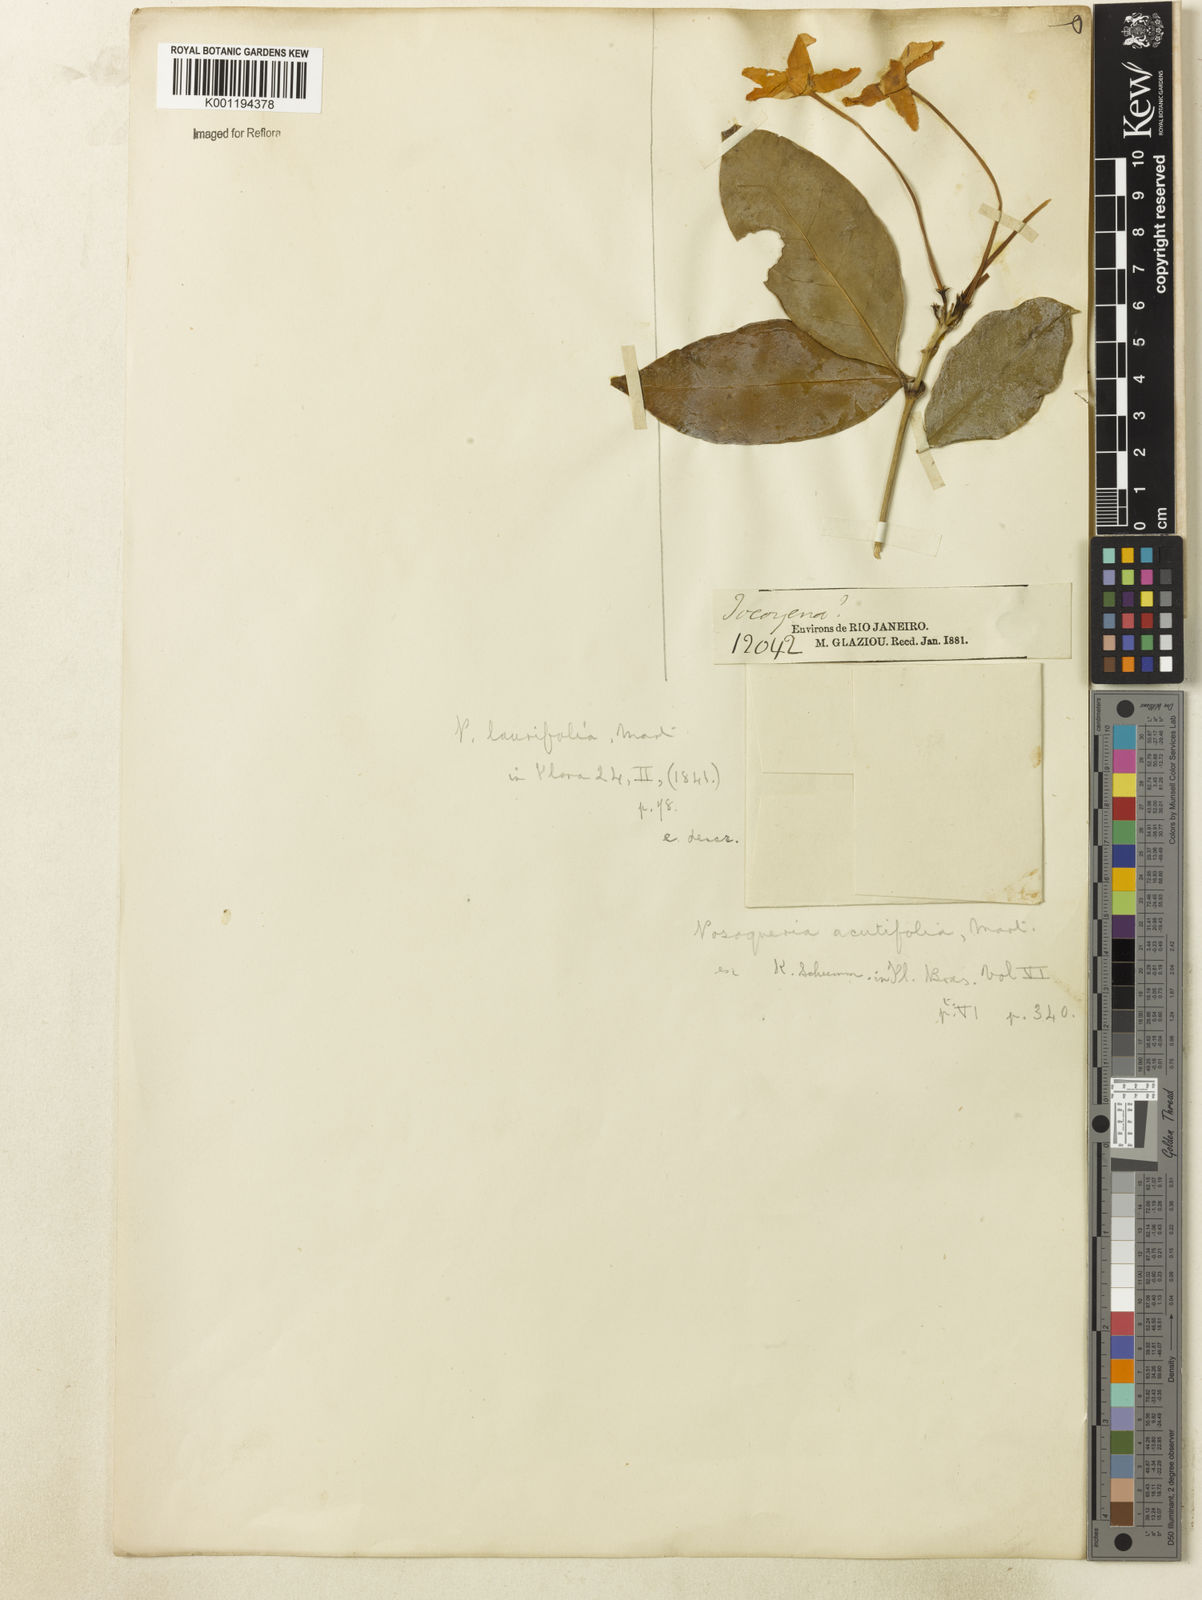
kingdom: Plantae
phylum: Tracheophyta
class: Magnoliopsida
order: Gentianales
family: Rubiaceae
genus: Posoqueria
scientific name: Posoqueria laurifolia
